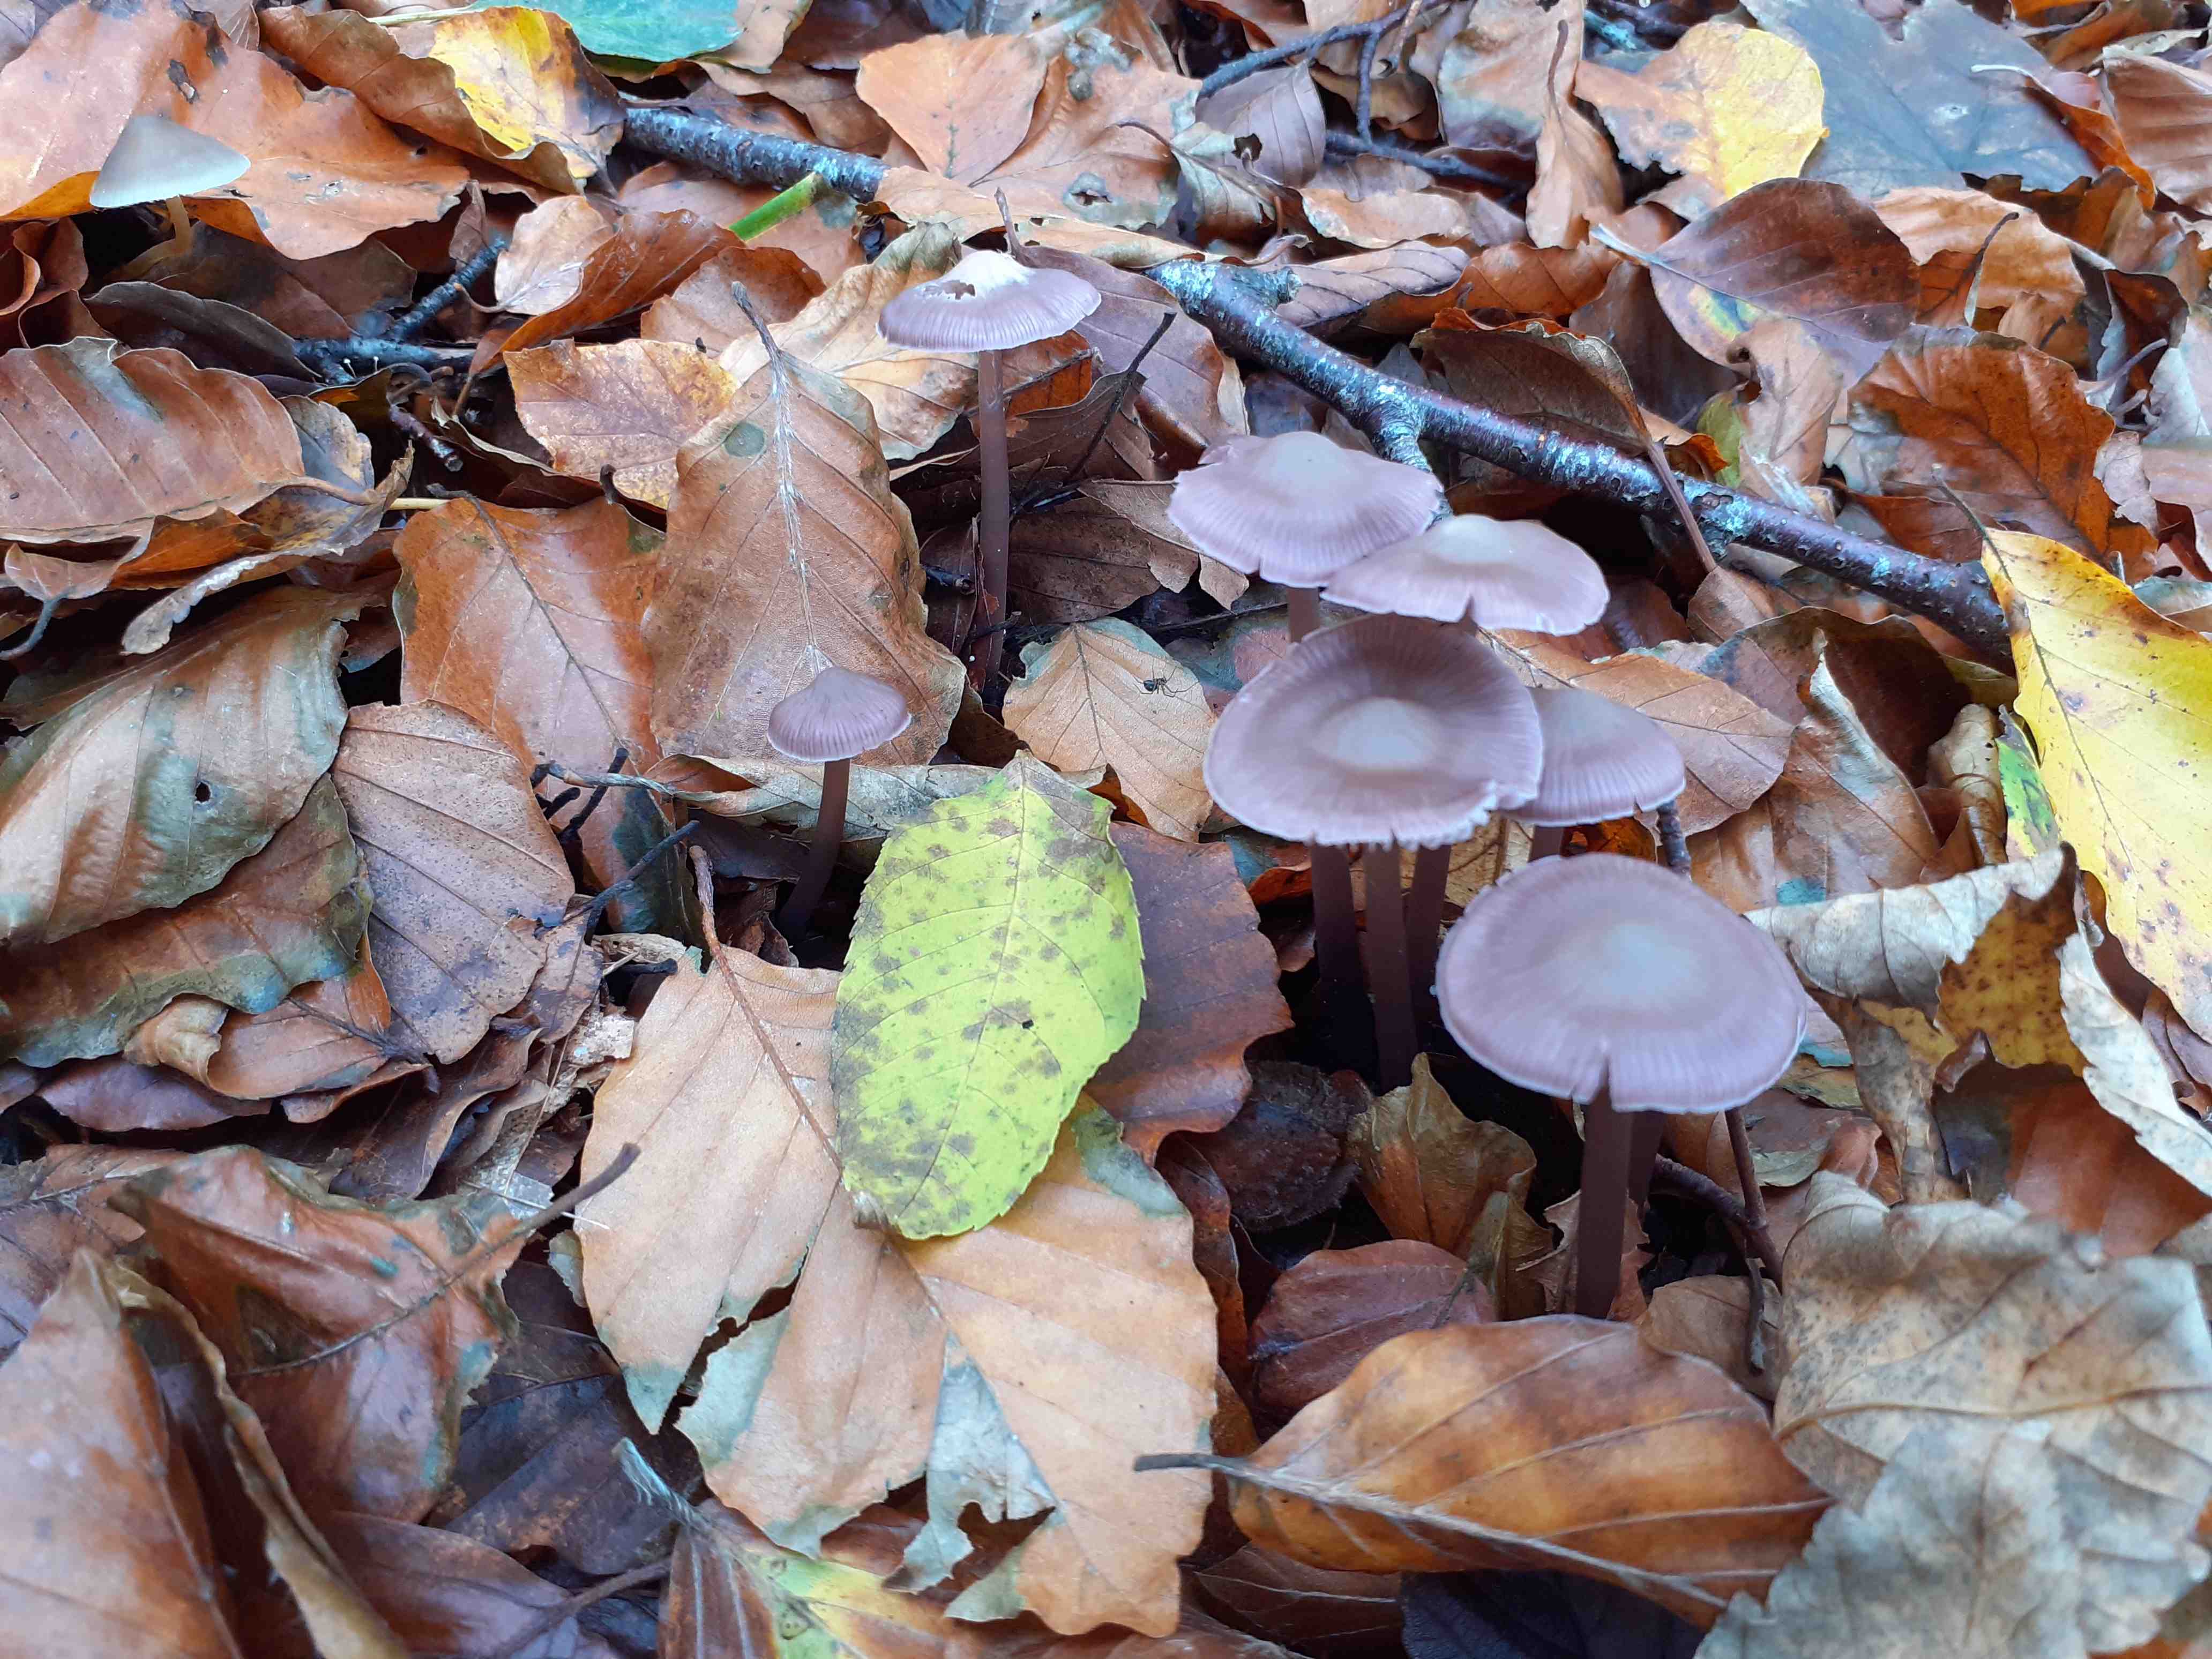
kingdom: Fungi
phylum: Basidiomycota
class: Agaricomycetes
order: Agaricales
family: Mycenaceae
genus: Prunulus
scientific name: Prunulus diosmus
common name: tobaks-huesvamp
